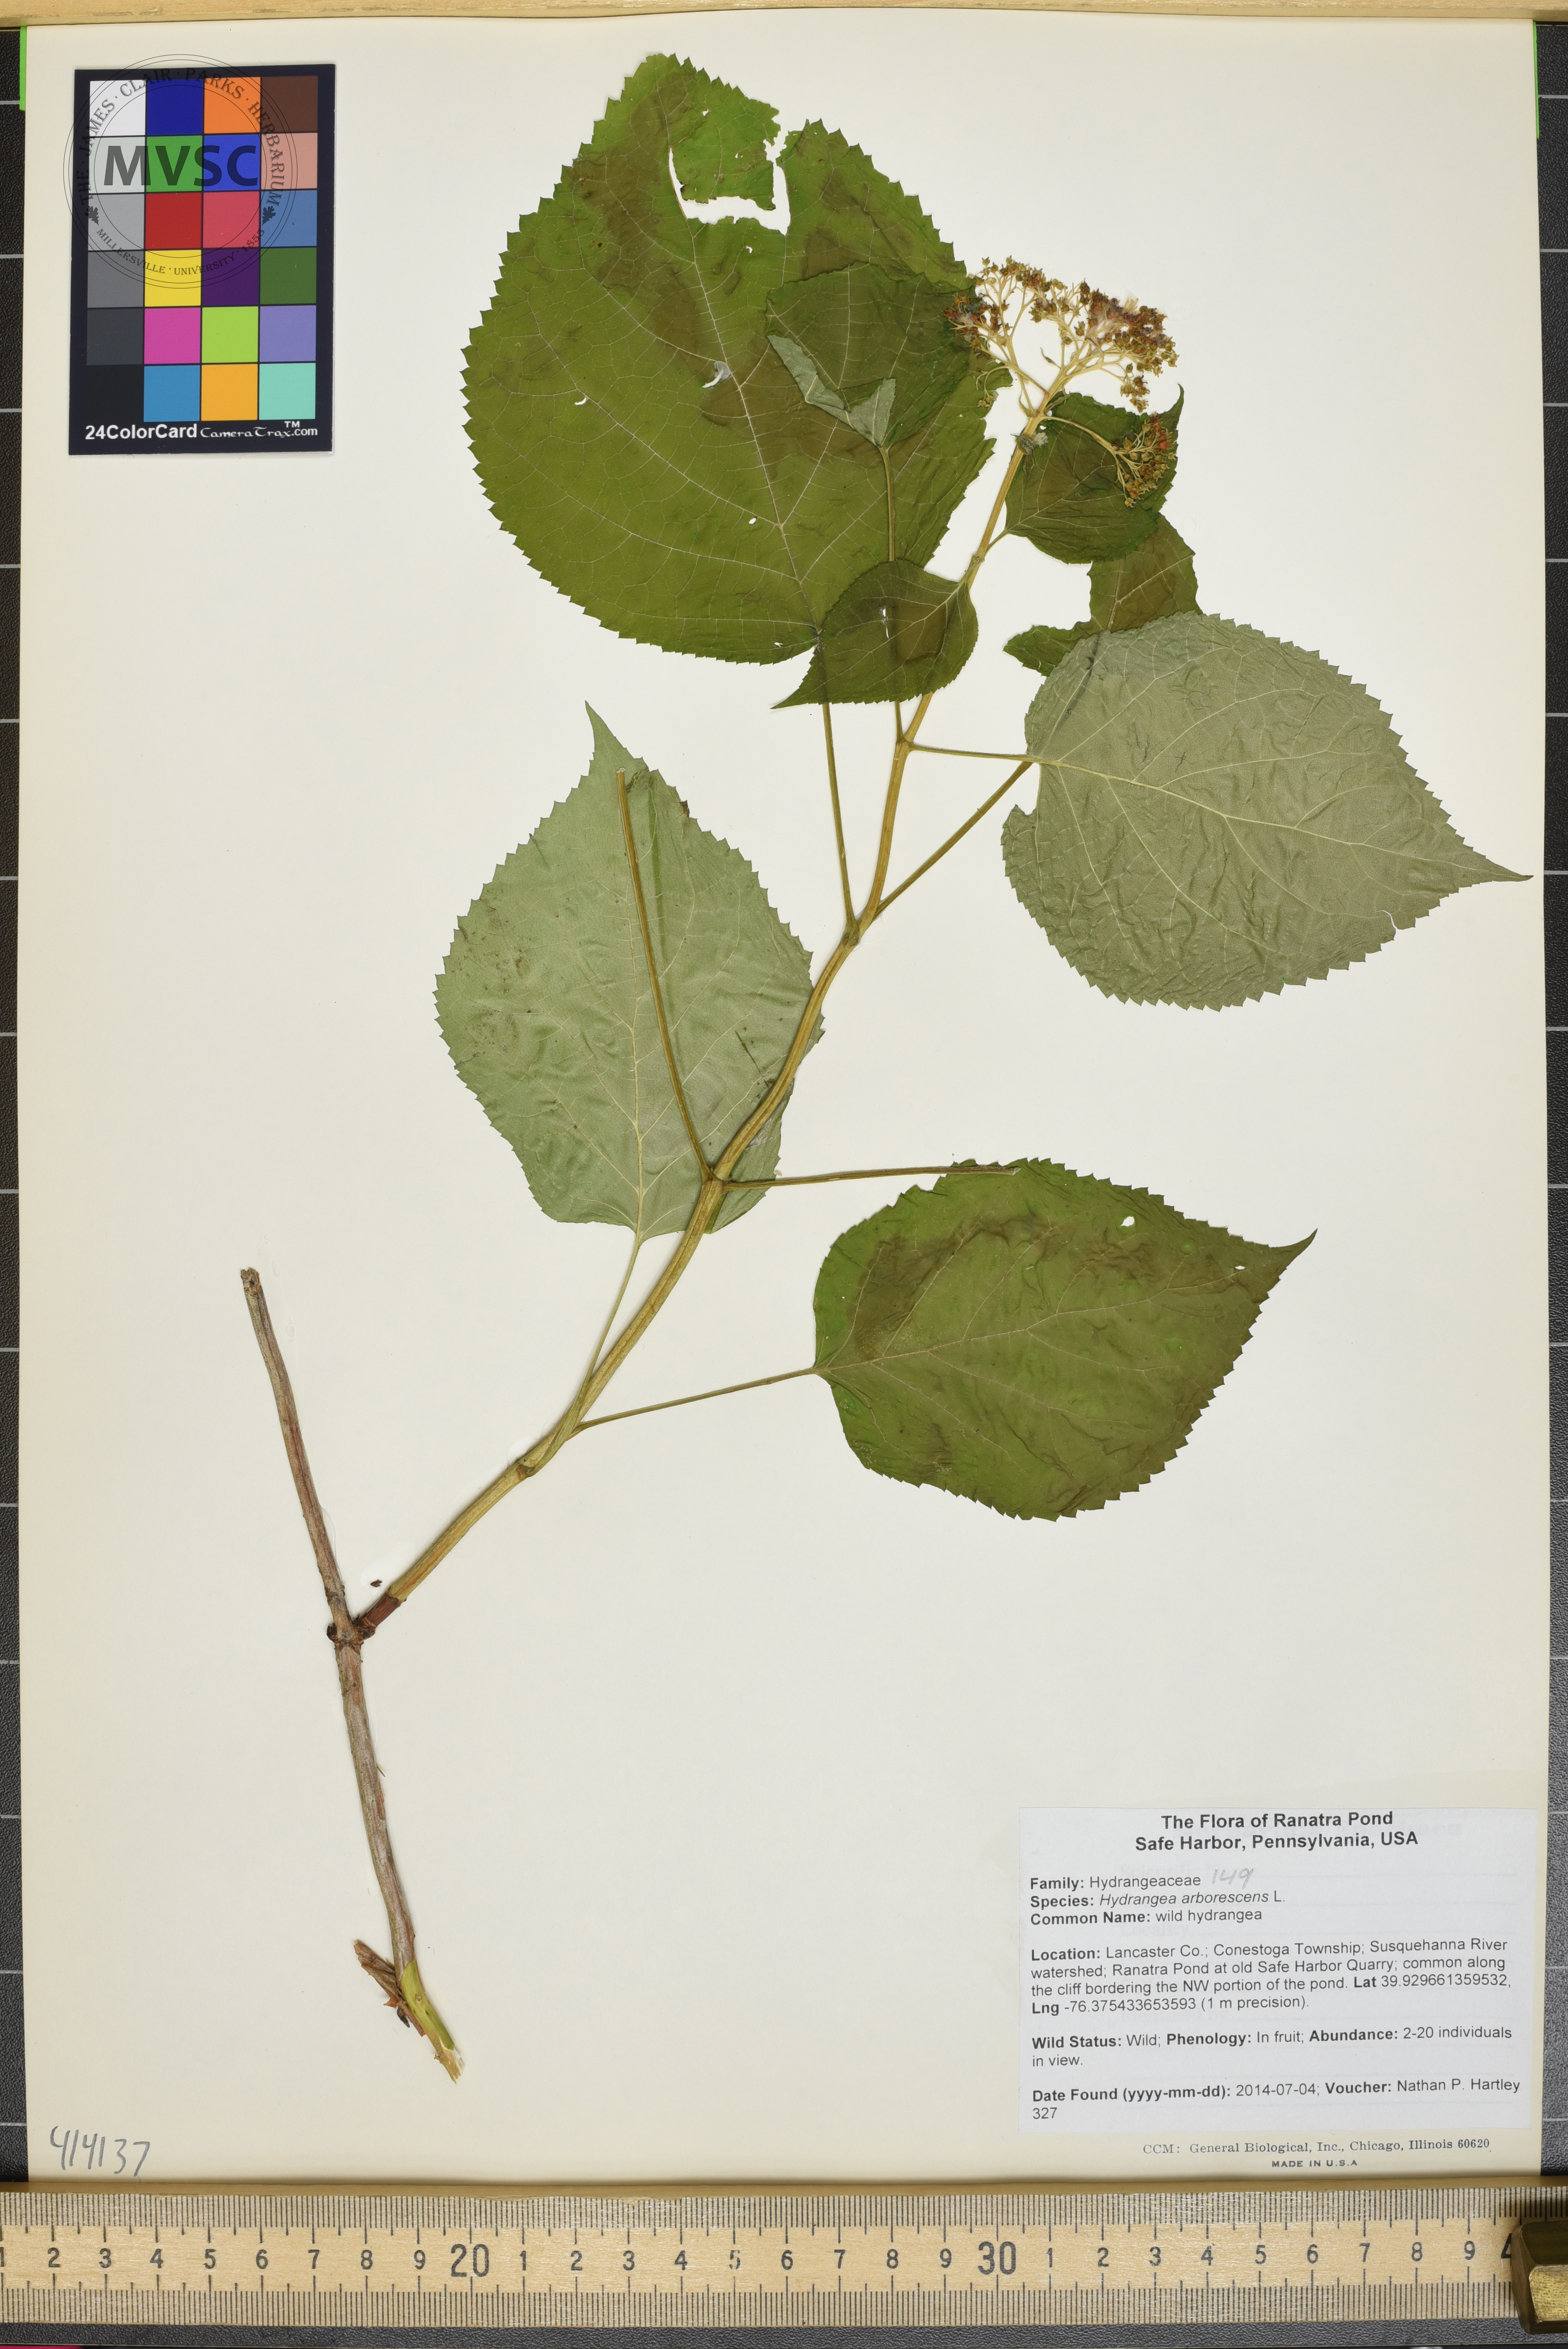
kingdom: Plantae
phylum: Tracheophyta
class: Magnoliopsida
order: Cornales
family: Hydrangeaceae
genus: Hydrangea
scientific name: Hydrangea arborescens
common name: hydrangea
